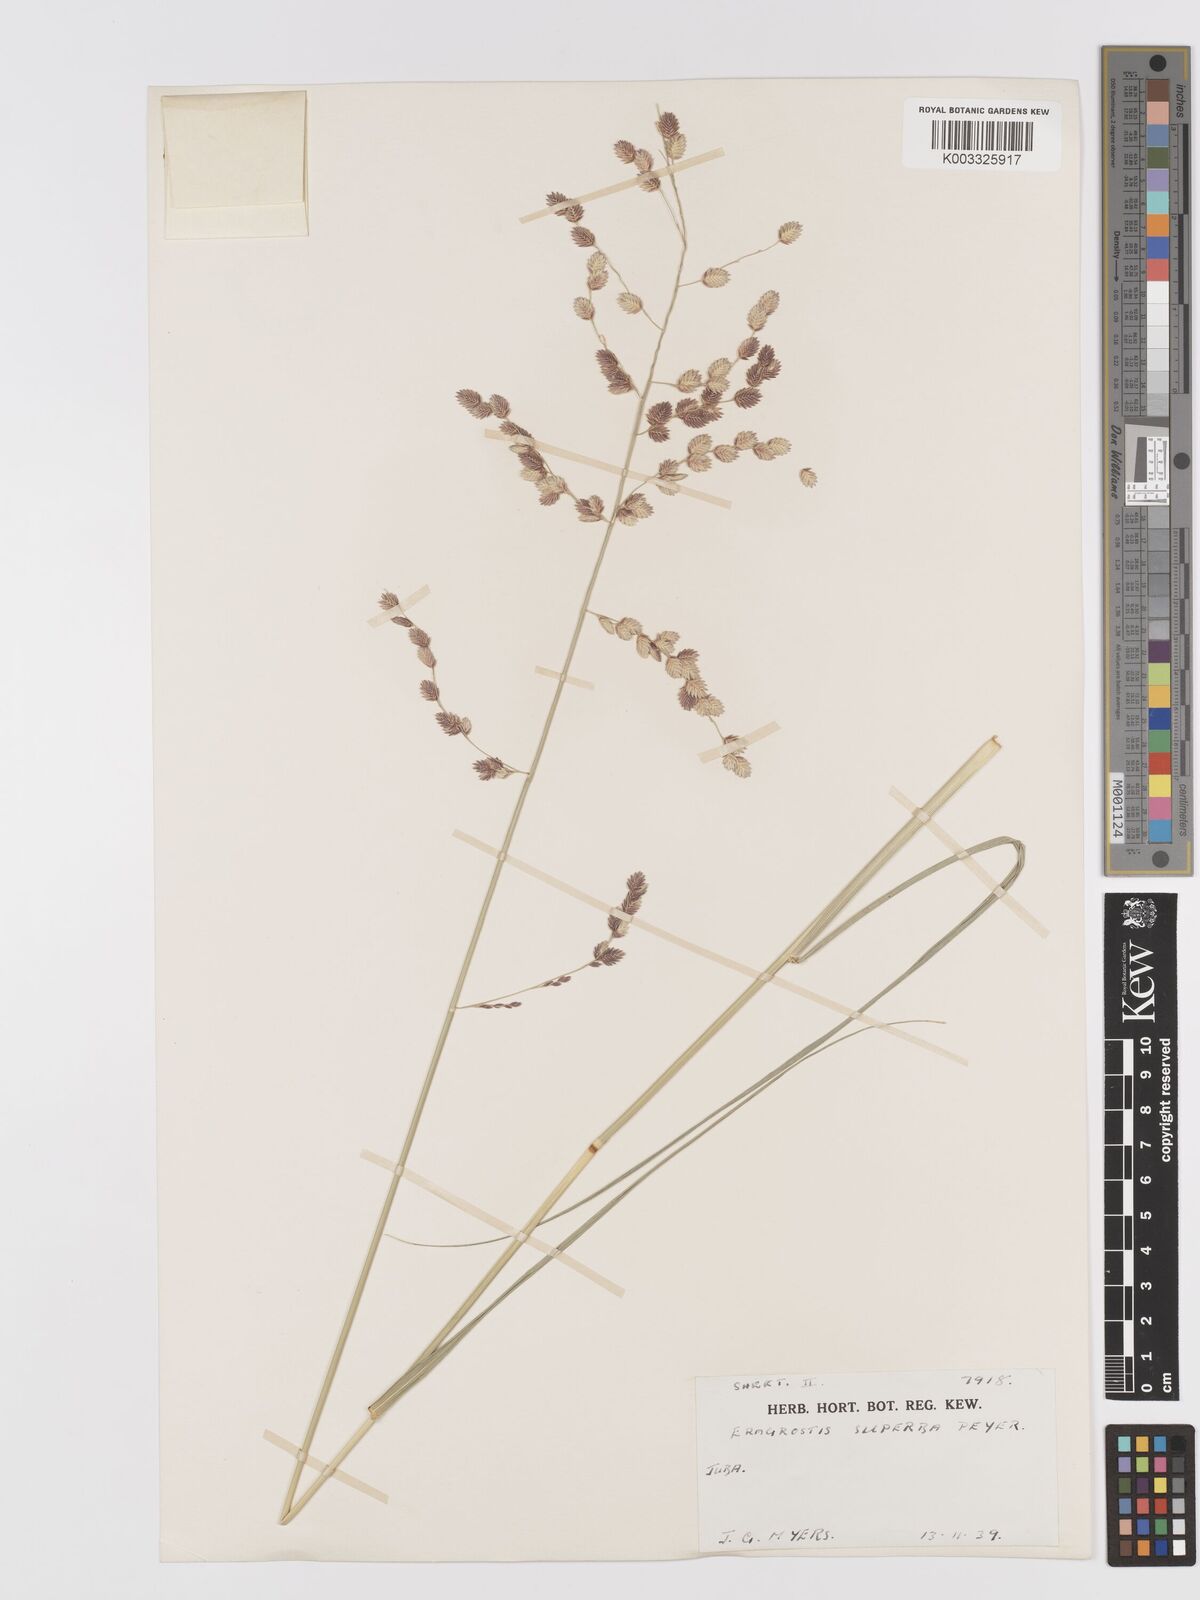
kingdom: Plantae
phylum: Tracheophyta
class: Liliopsida
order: Poales
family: Poaceae
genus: Eragrostis
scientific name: Eragrostis superba
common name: Wilman lovegrass
